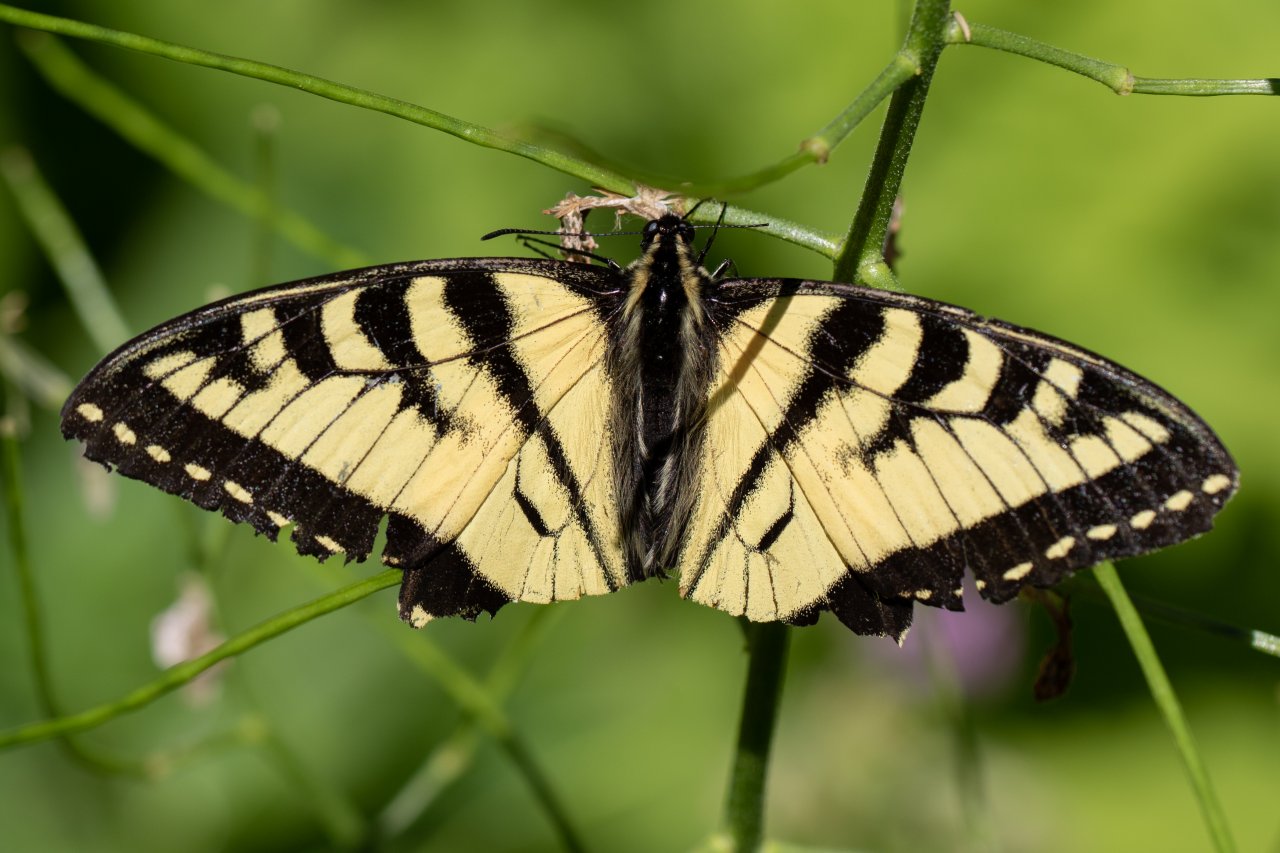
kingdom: Animalia
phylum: Arthropoda
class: Insecta
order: Lepidoptera
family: Papilionidae
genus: Pterourus
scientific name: Pterourus canadensis
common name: Canadian Tiger Swallowtail
